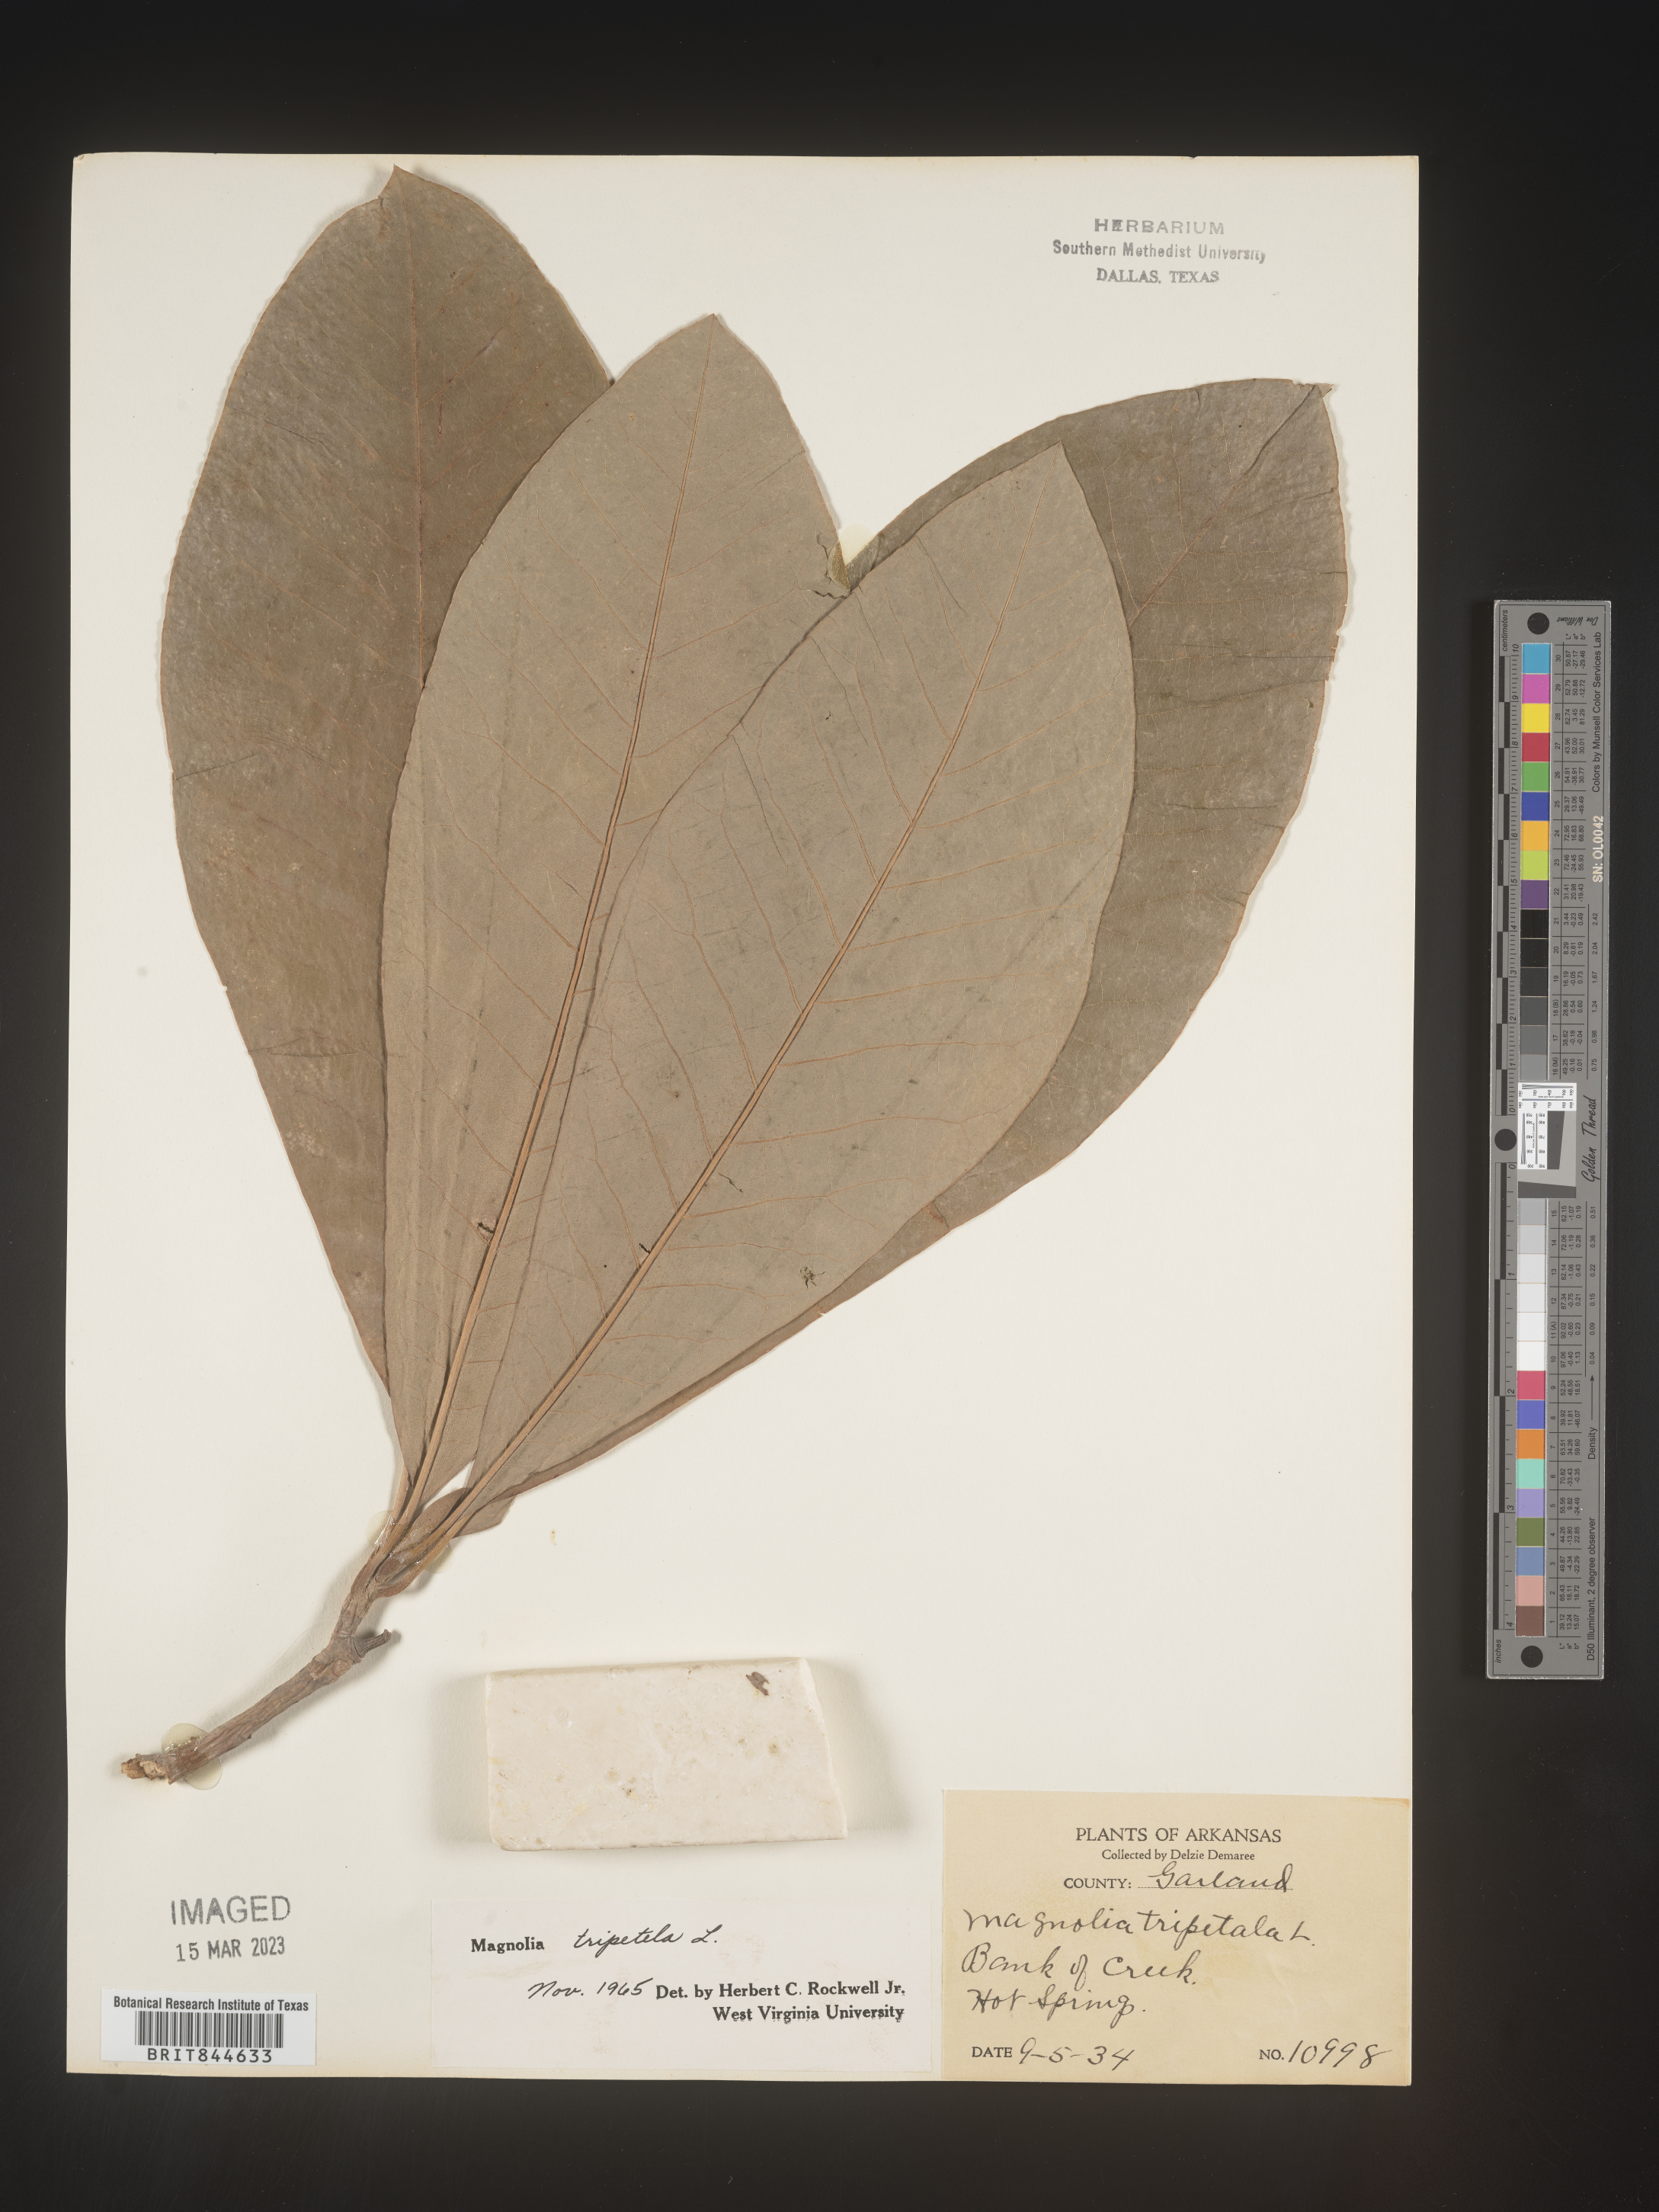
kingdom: Plantae
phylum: Tracheophyta
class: Magnoliopsida
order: Magnoliales
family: Magnoliaceae
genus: Magnolia
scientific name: Magnolia tripetala
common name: Umbrella magnolia
